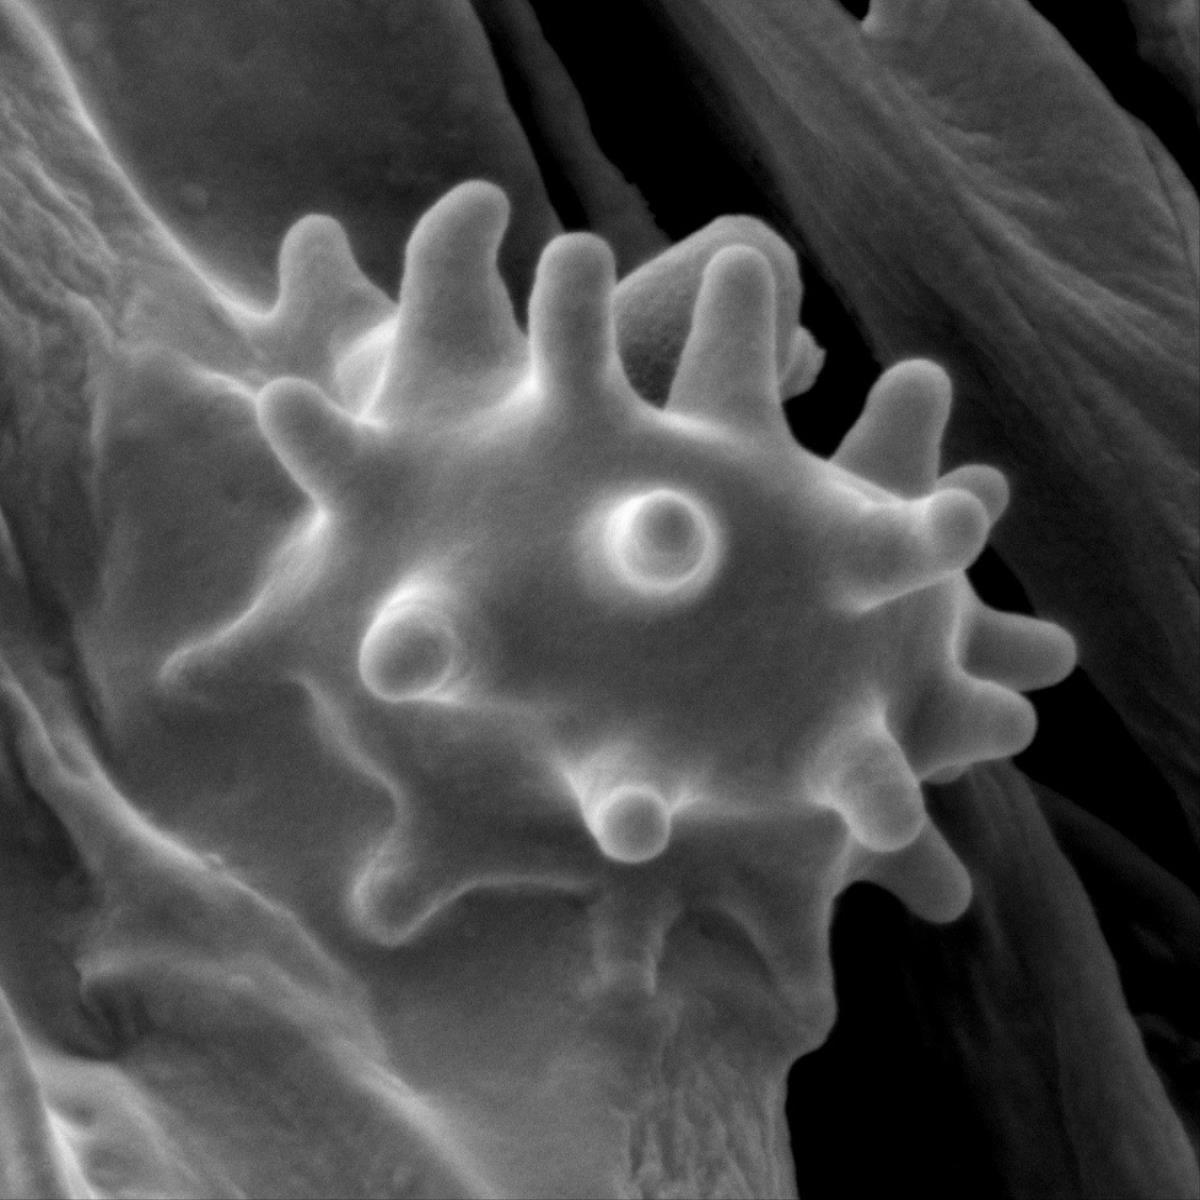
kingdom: Fungi
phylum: Basidiomycota
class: Agaricomycetes
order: Thelephorales
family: Thelephoraceae
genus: Phellodon
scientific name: Phellodon
